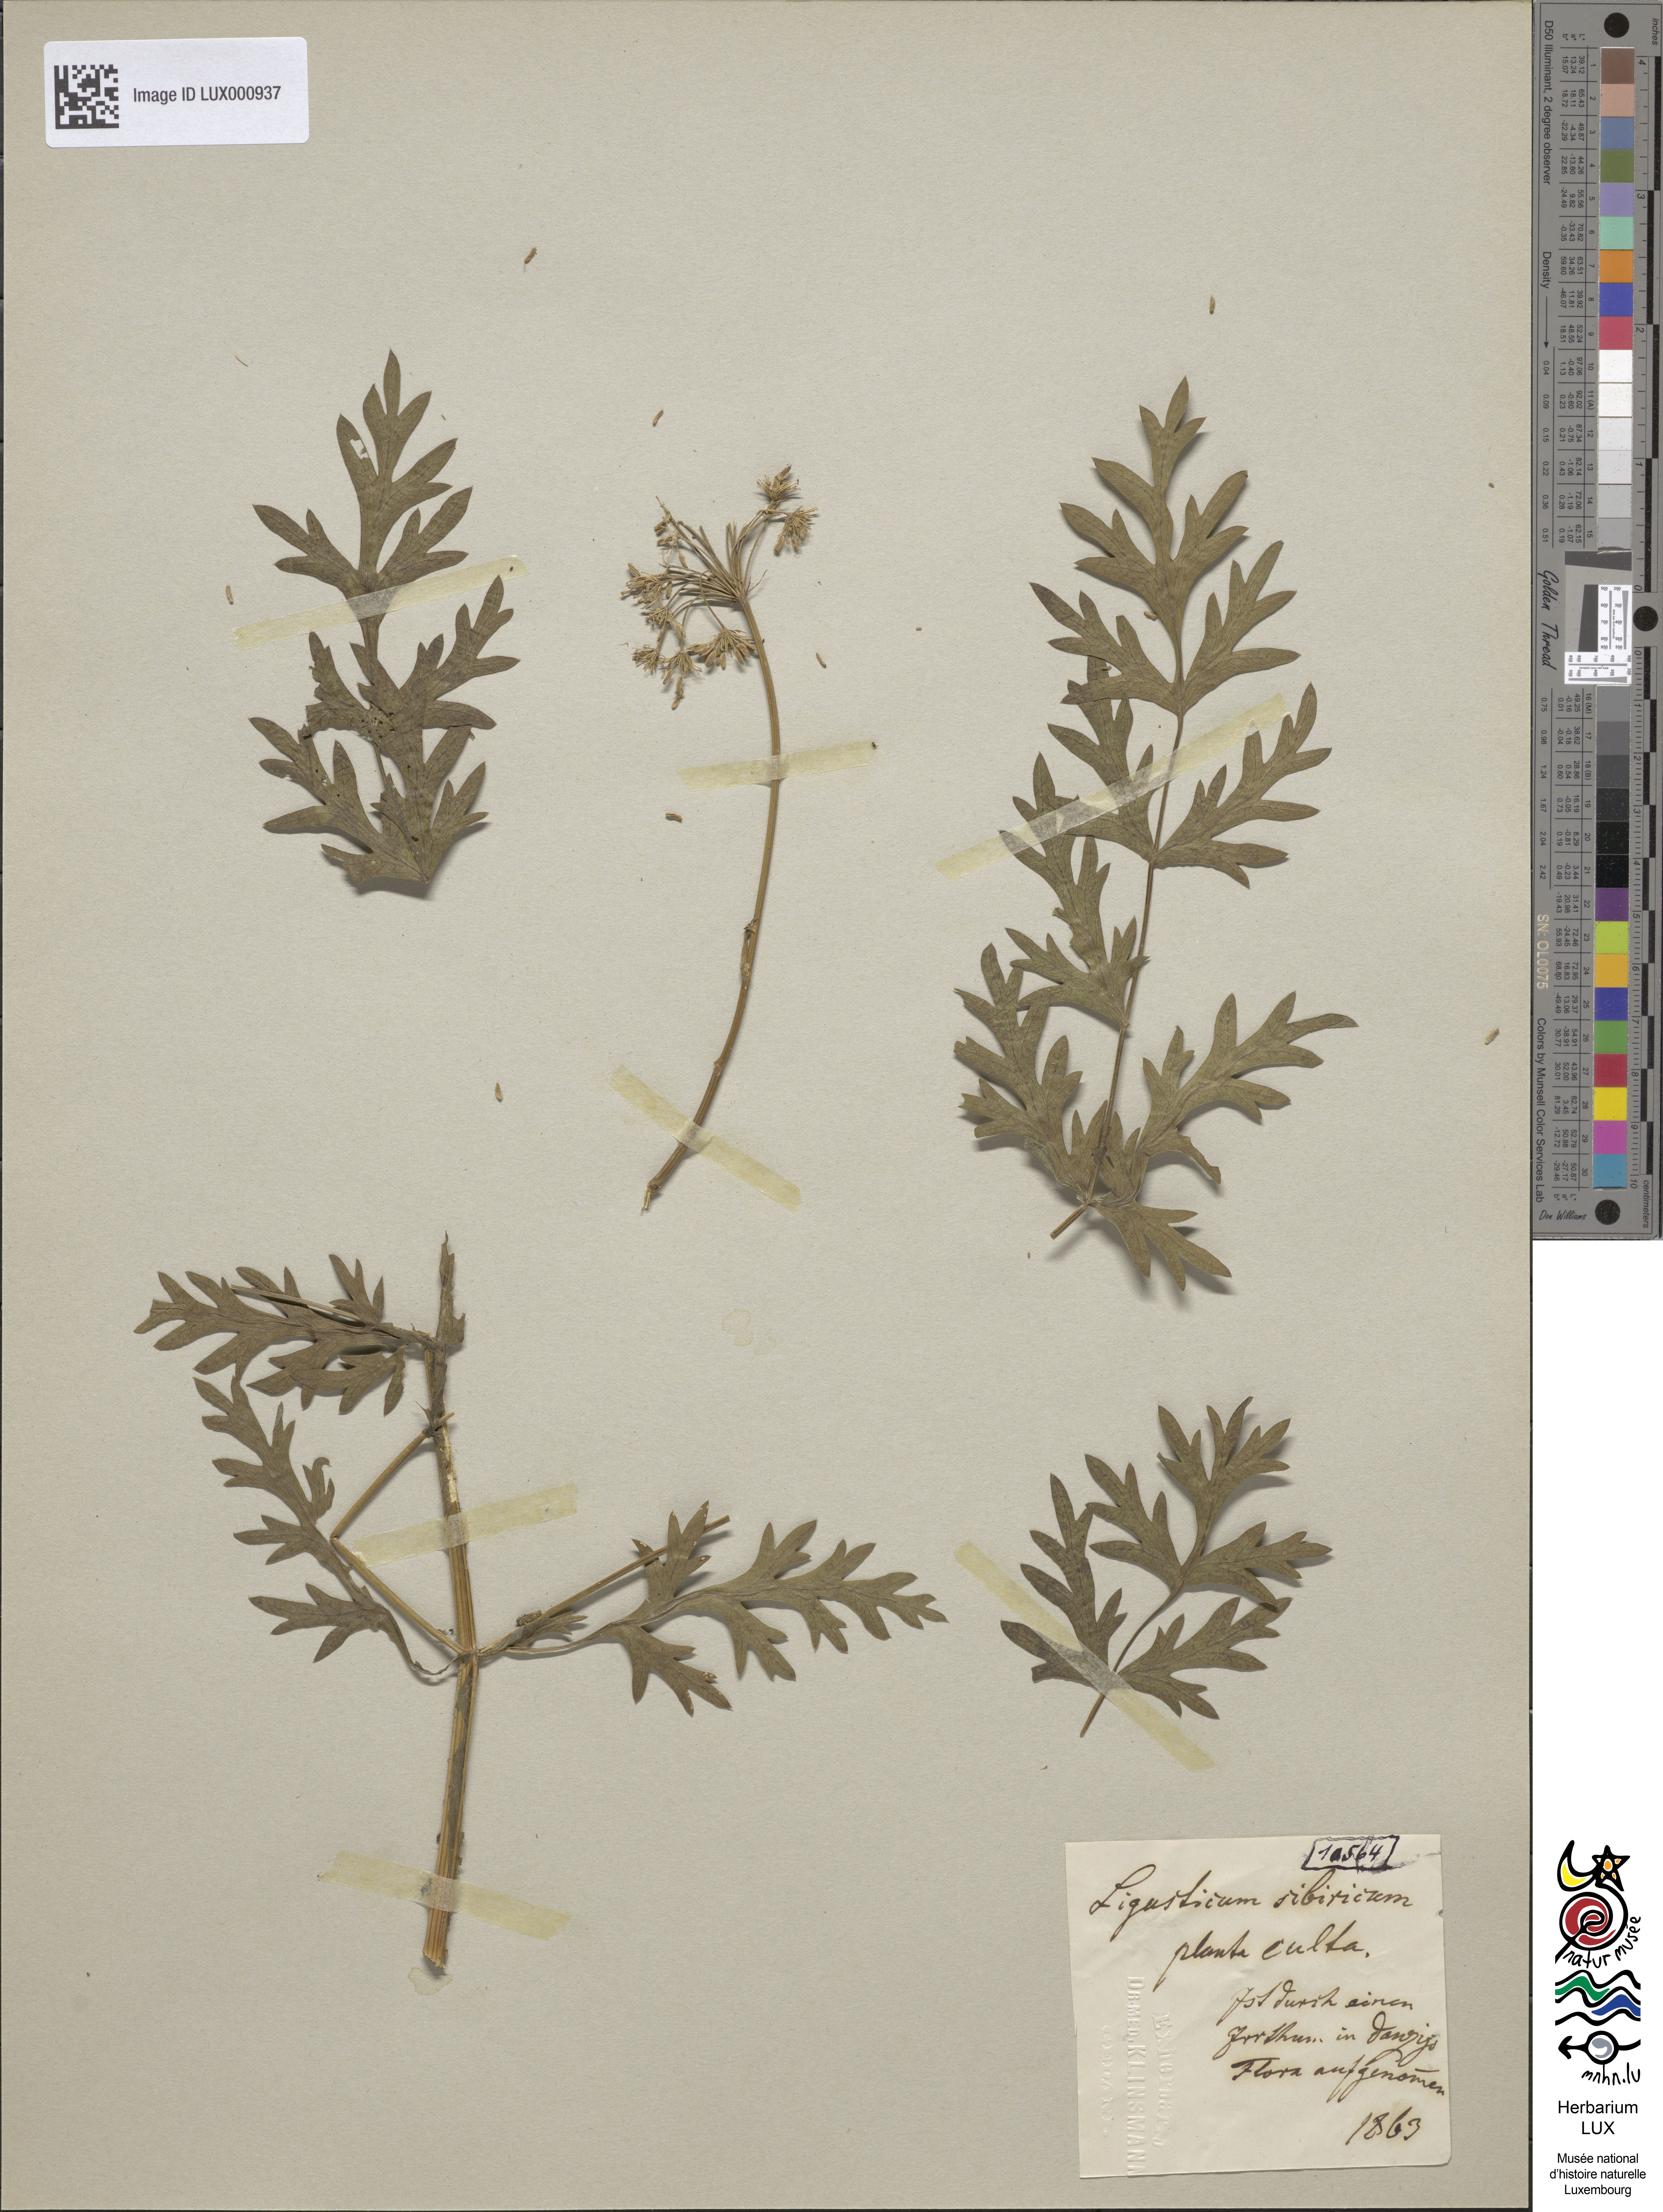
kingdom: Plantae
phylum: Tracheophyta
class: Magnoliopsida
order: Apiales
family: Apiaceae
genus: Seseli
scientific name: Seseli libanotis
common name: Mooncarrot
